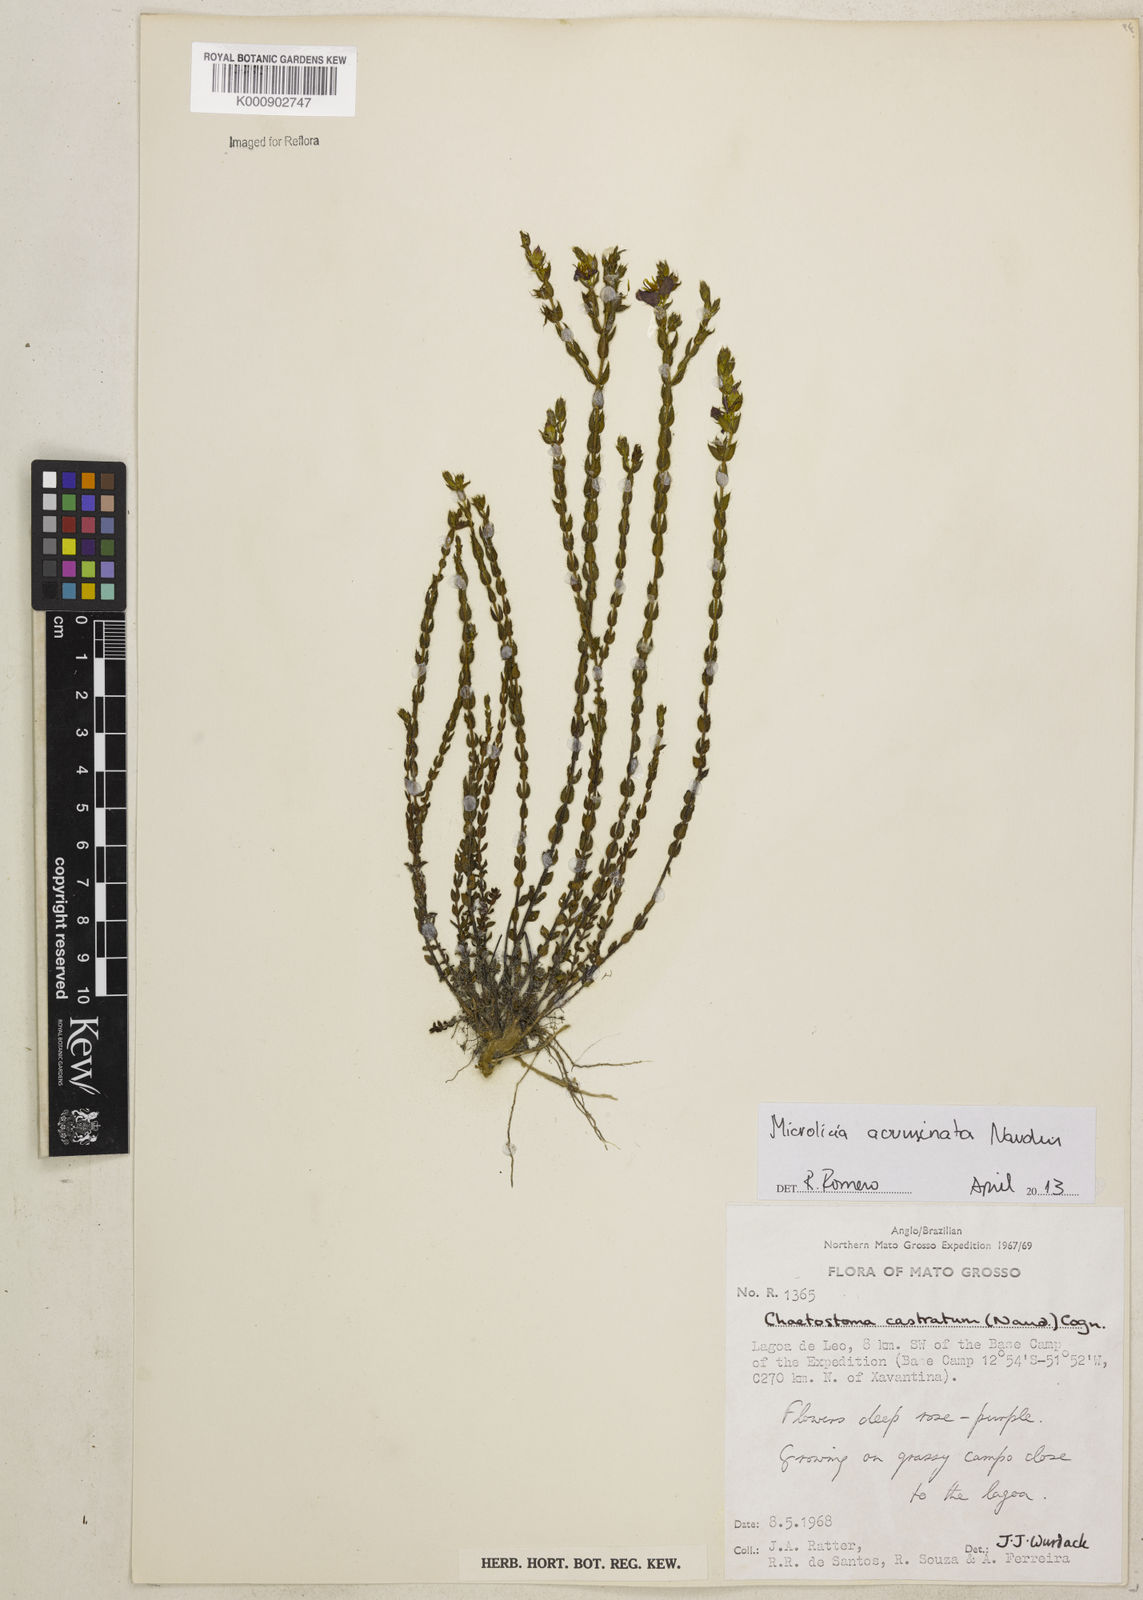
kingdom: Plantae
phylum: Tracheophyta
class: Magnoliopsida
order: Myrtales
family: Melastomataceae
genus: Microlicia
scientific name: Microlicia
